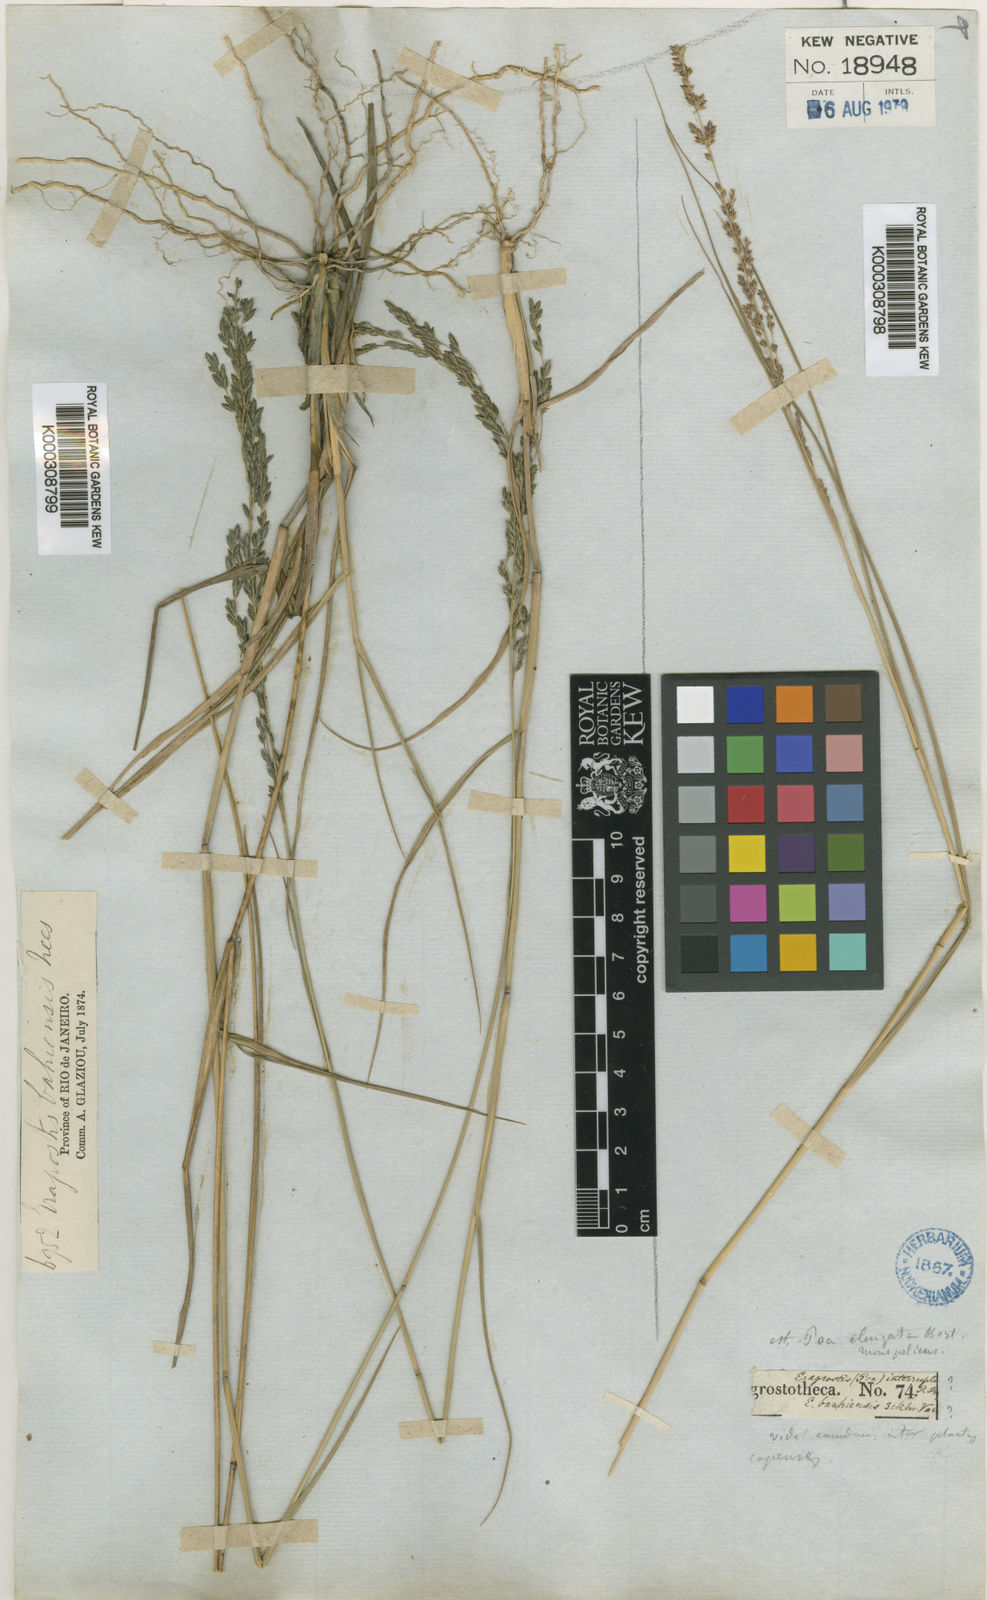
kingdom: Plantae
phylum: Tracheophyta
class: Liliopsida
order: Poales
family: Poaceae
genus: Eragrostis
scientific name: Eragrostis bahiensis
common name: Bahia lovegrass
